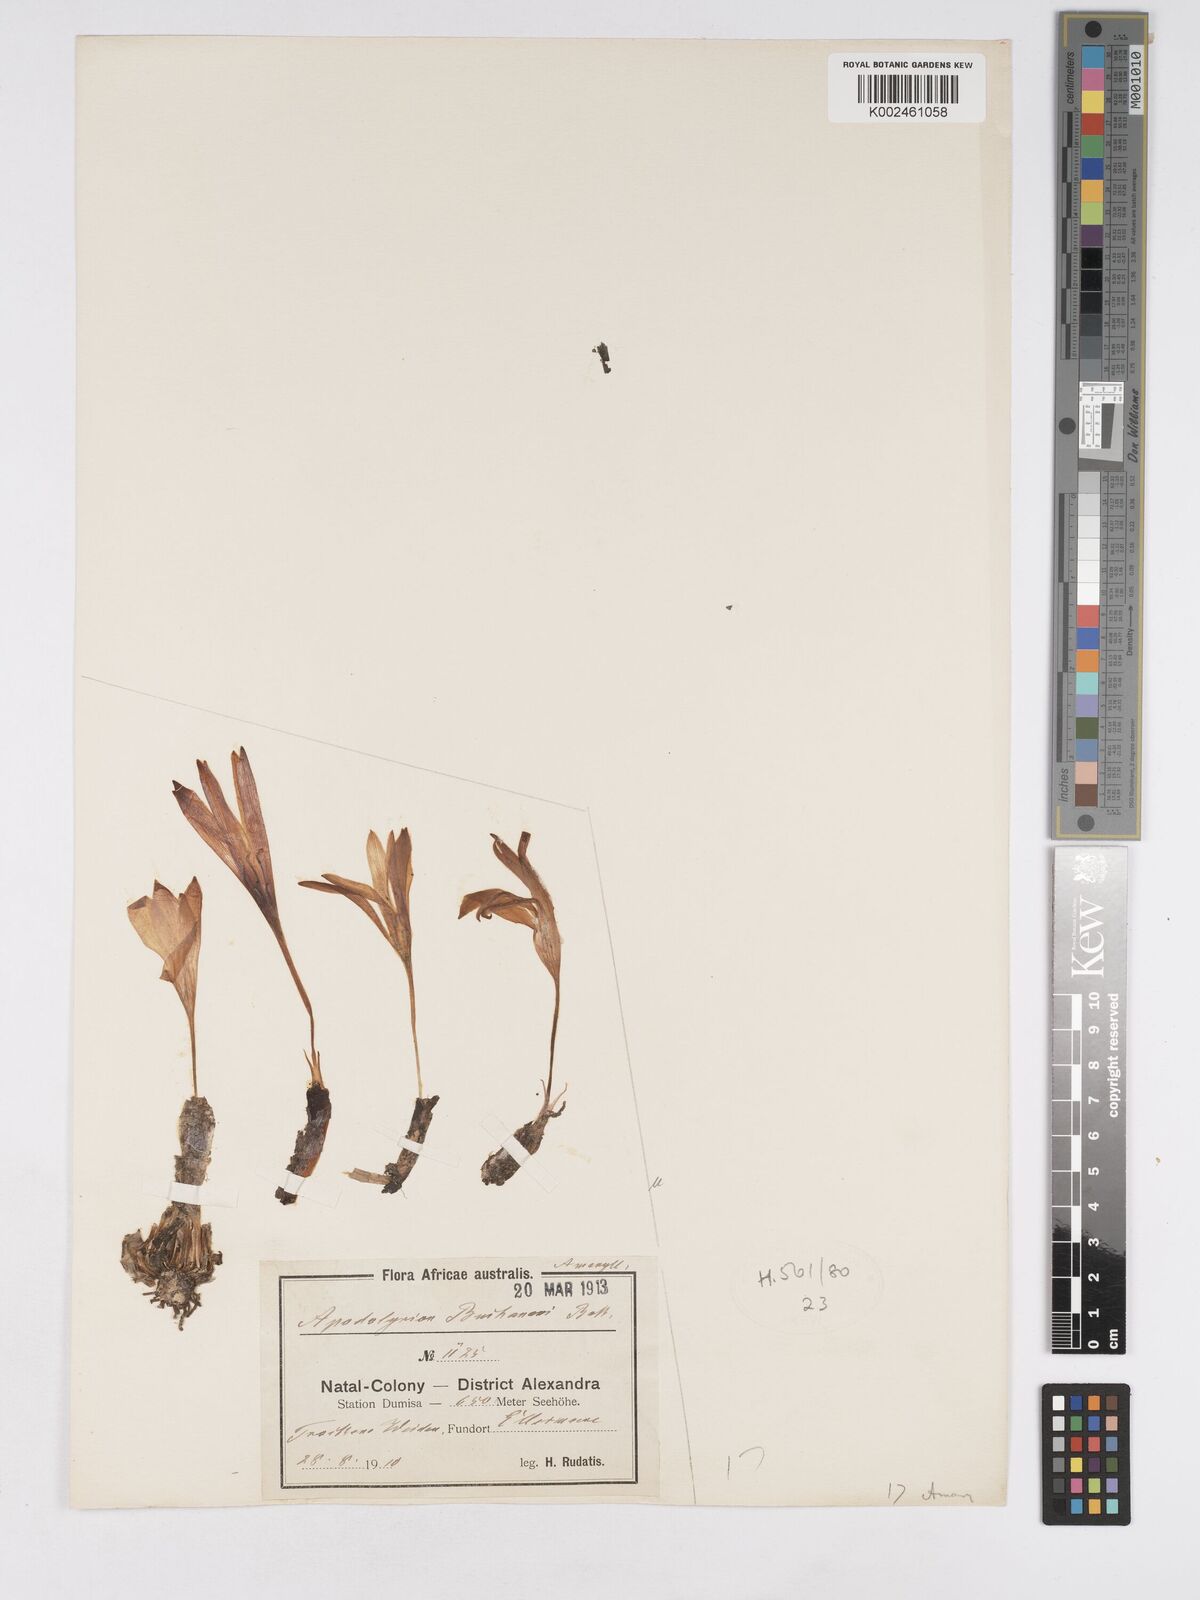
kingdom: Plantae
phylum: Tracheophyta
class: Liliopsida
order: Asparagales
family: Amaryllidaceae
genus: Apodolirion
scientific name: Apodolirion buchananii
